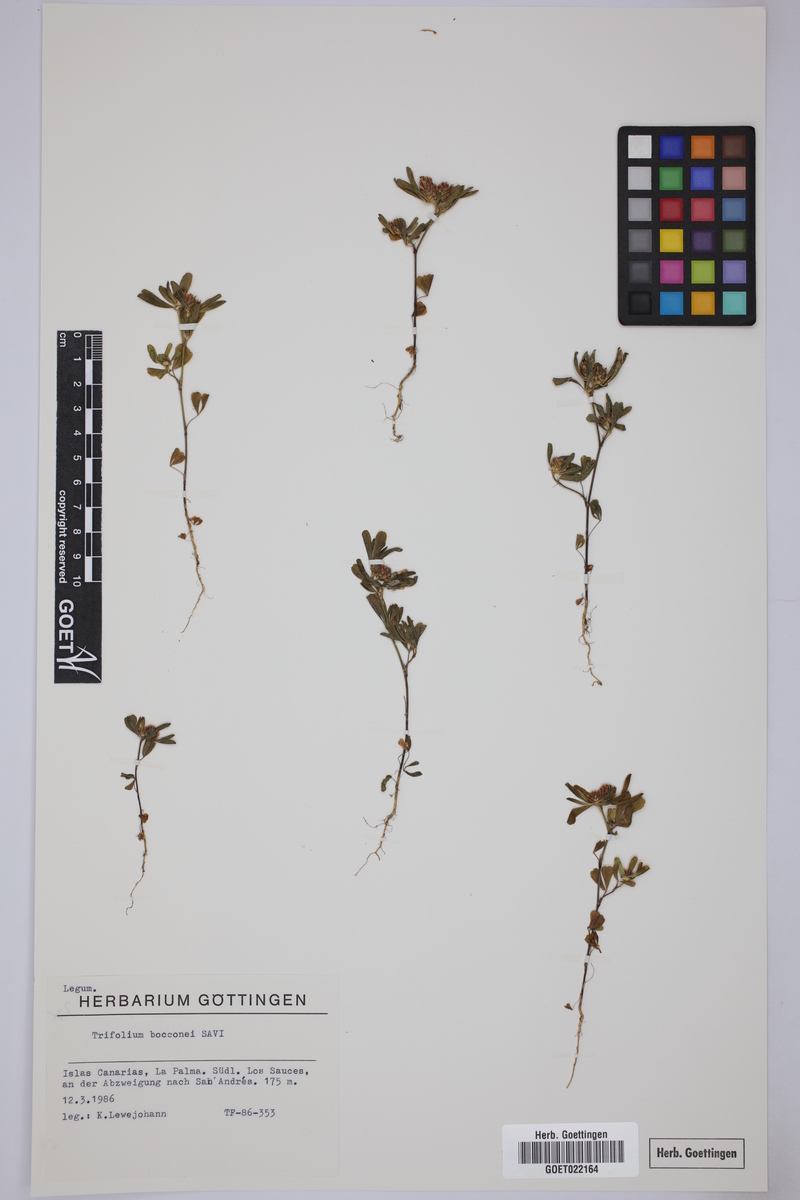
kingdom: Plantae
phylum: Tracheophyta
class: Magnoliopsida
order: Fabales
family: Fabaceae
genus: Trifolium
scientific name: Trifolium bocconei
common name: Twin-headed clover
